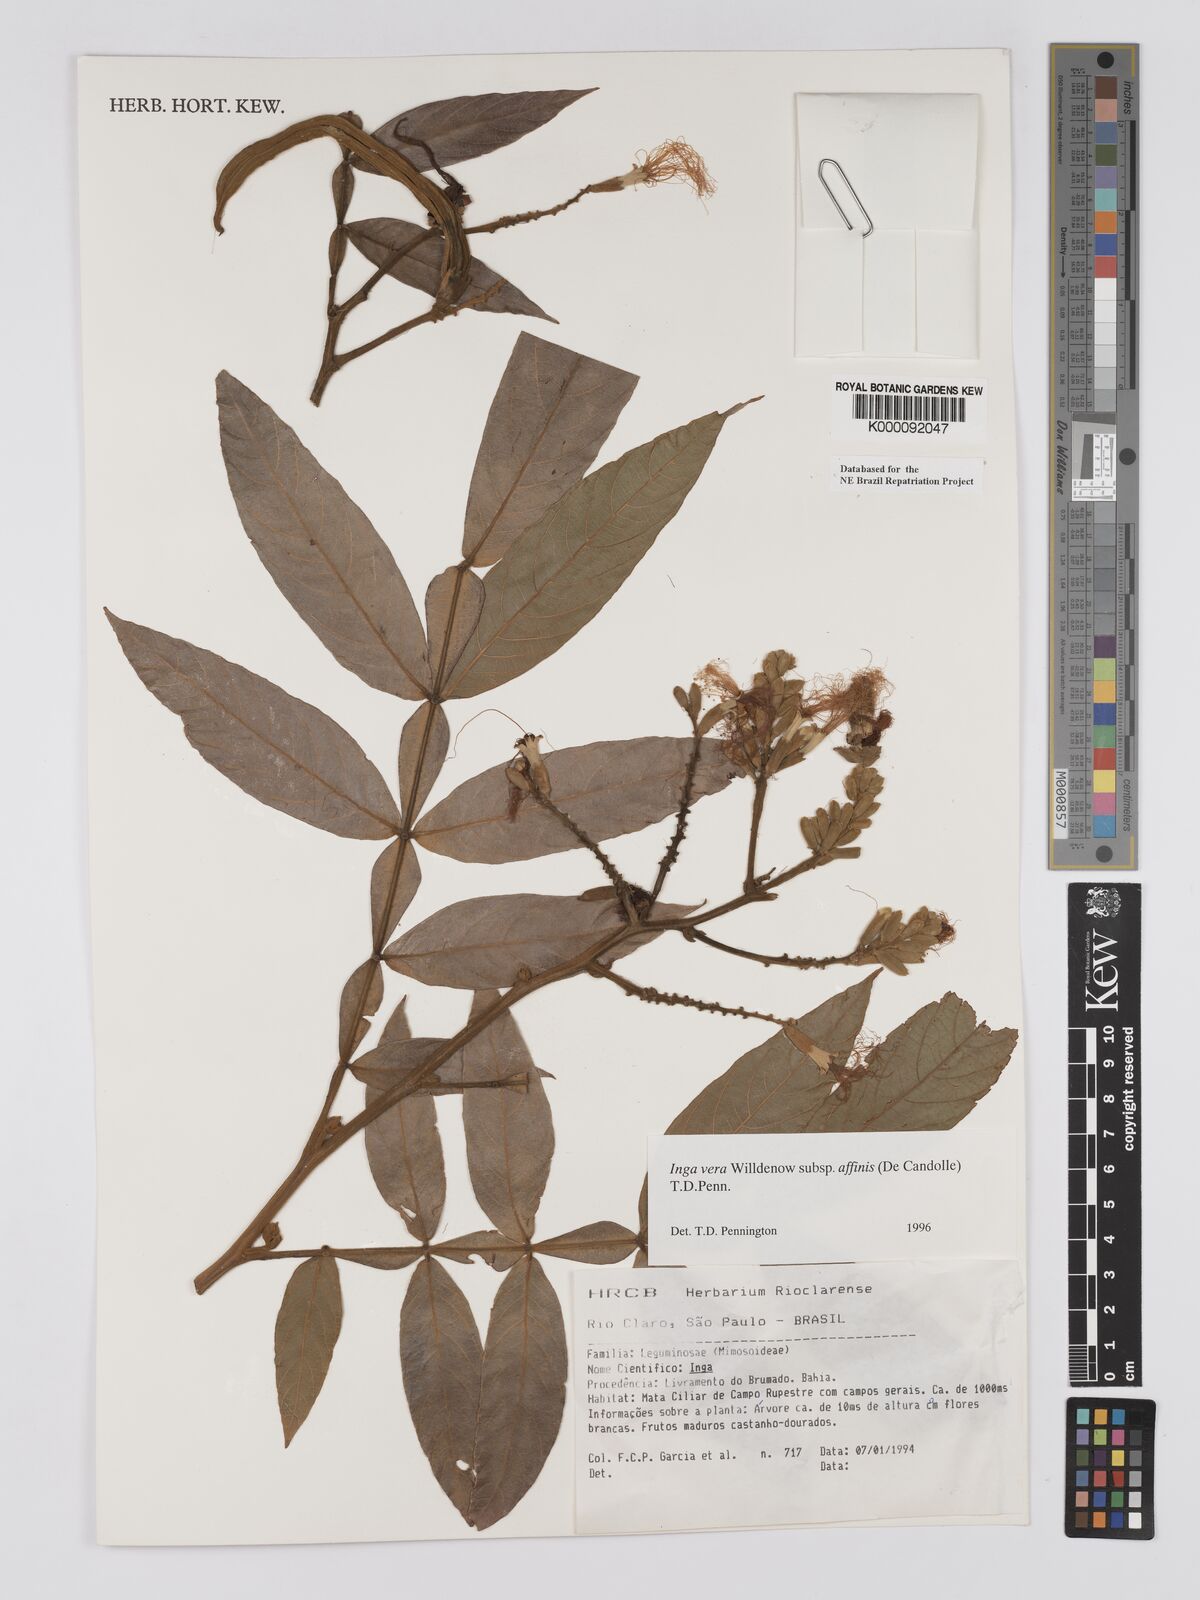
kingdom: Plantae
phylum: Tracheophyta
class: Magnoliopsida
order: Fabales
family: Fabaceae
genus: Inga
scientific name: Inga affinis
